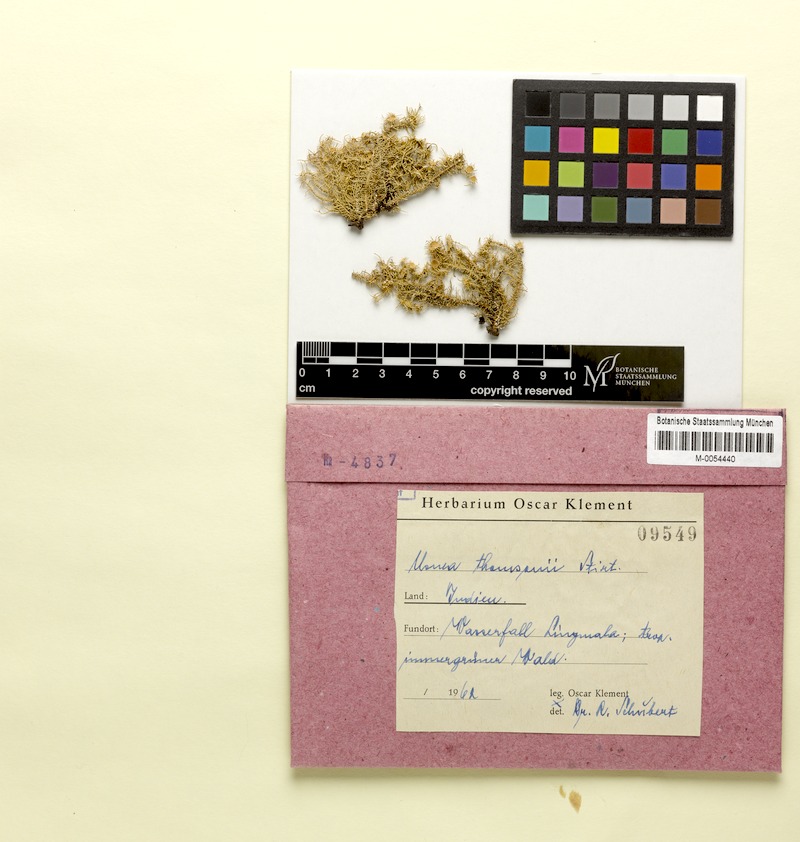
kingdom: Fungi
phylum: Ascomycota
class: Lecanoromycetes
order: Lecanorales
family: Parmeliaceae
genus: Usnea
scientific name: Usnea
